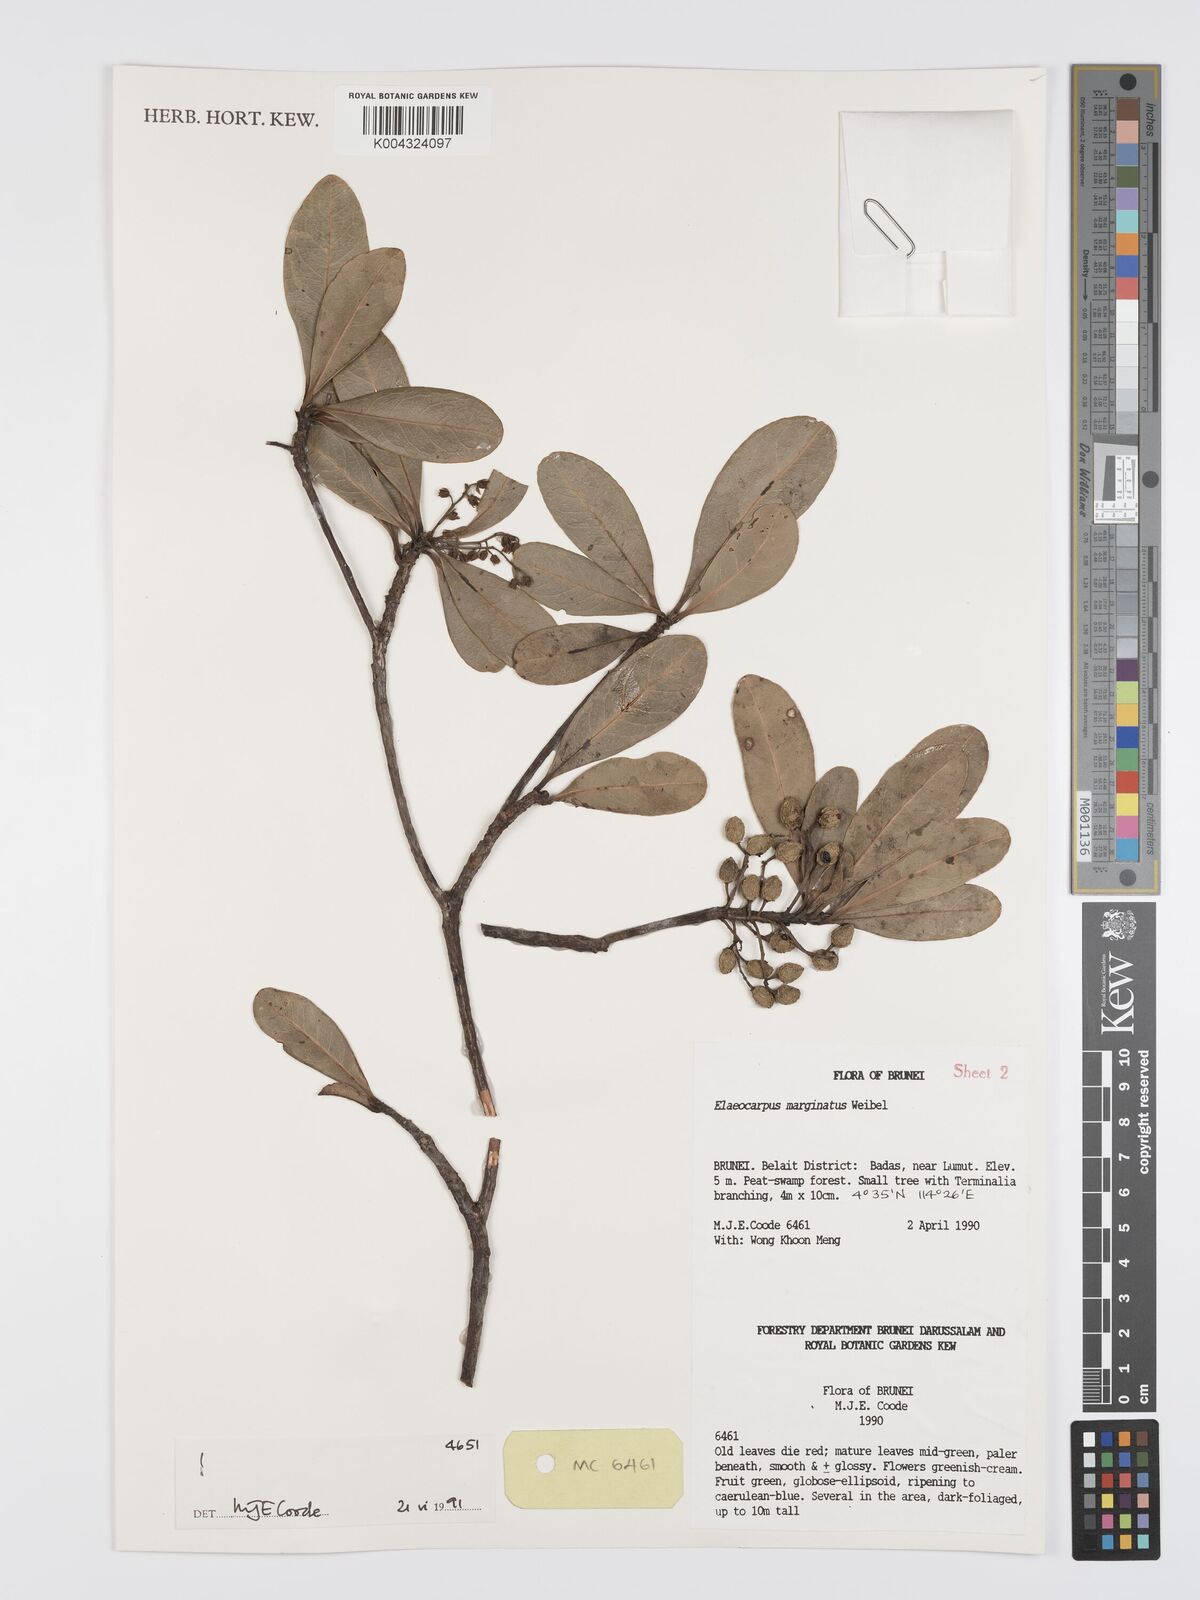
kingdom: Plantae
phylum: Tracheophyta
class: Magnoliopsida
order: Oxalidales
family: Elaeocarpaceae
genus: Elaeocarpus
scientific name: Elaeocarpus marginatus
